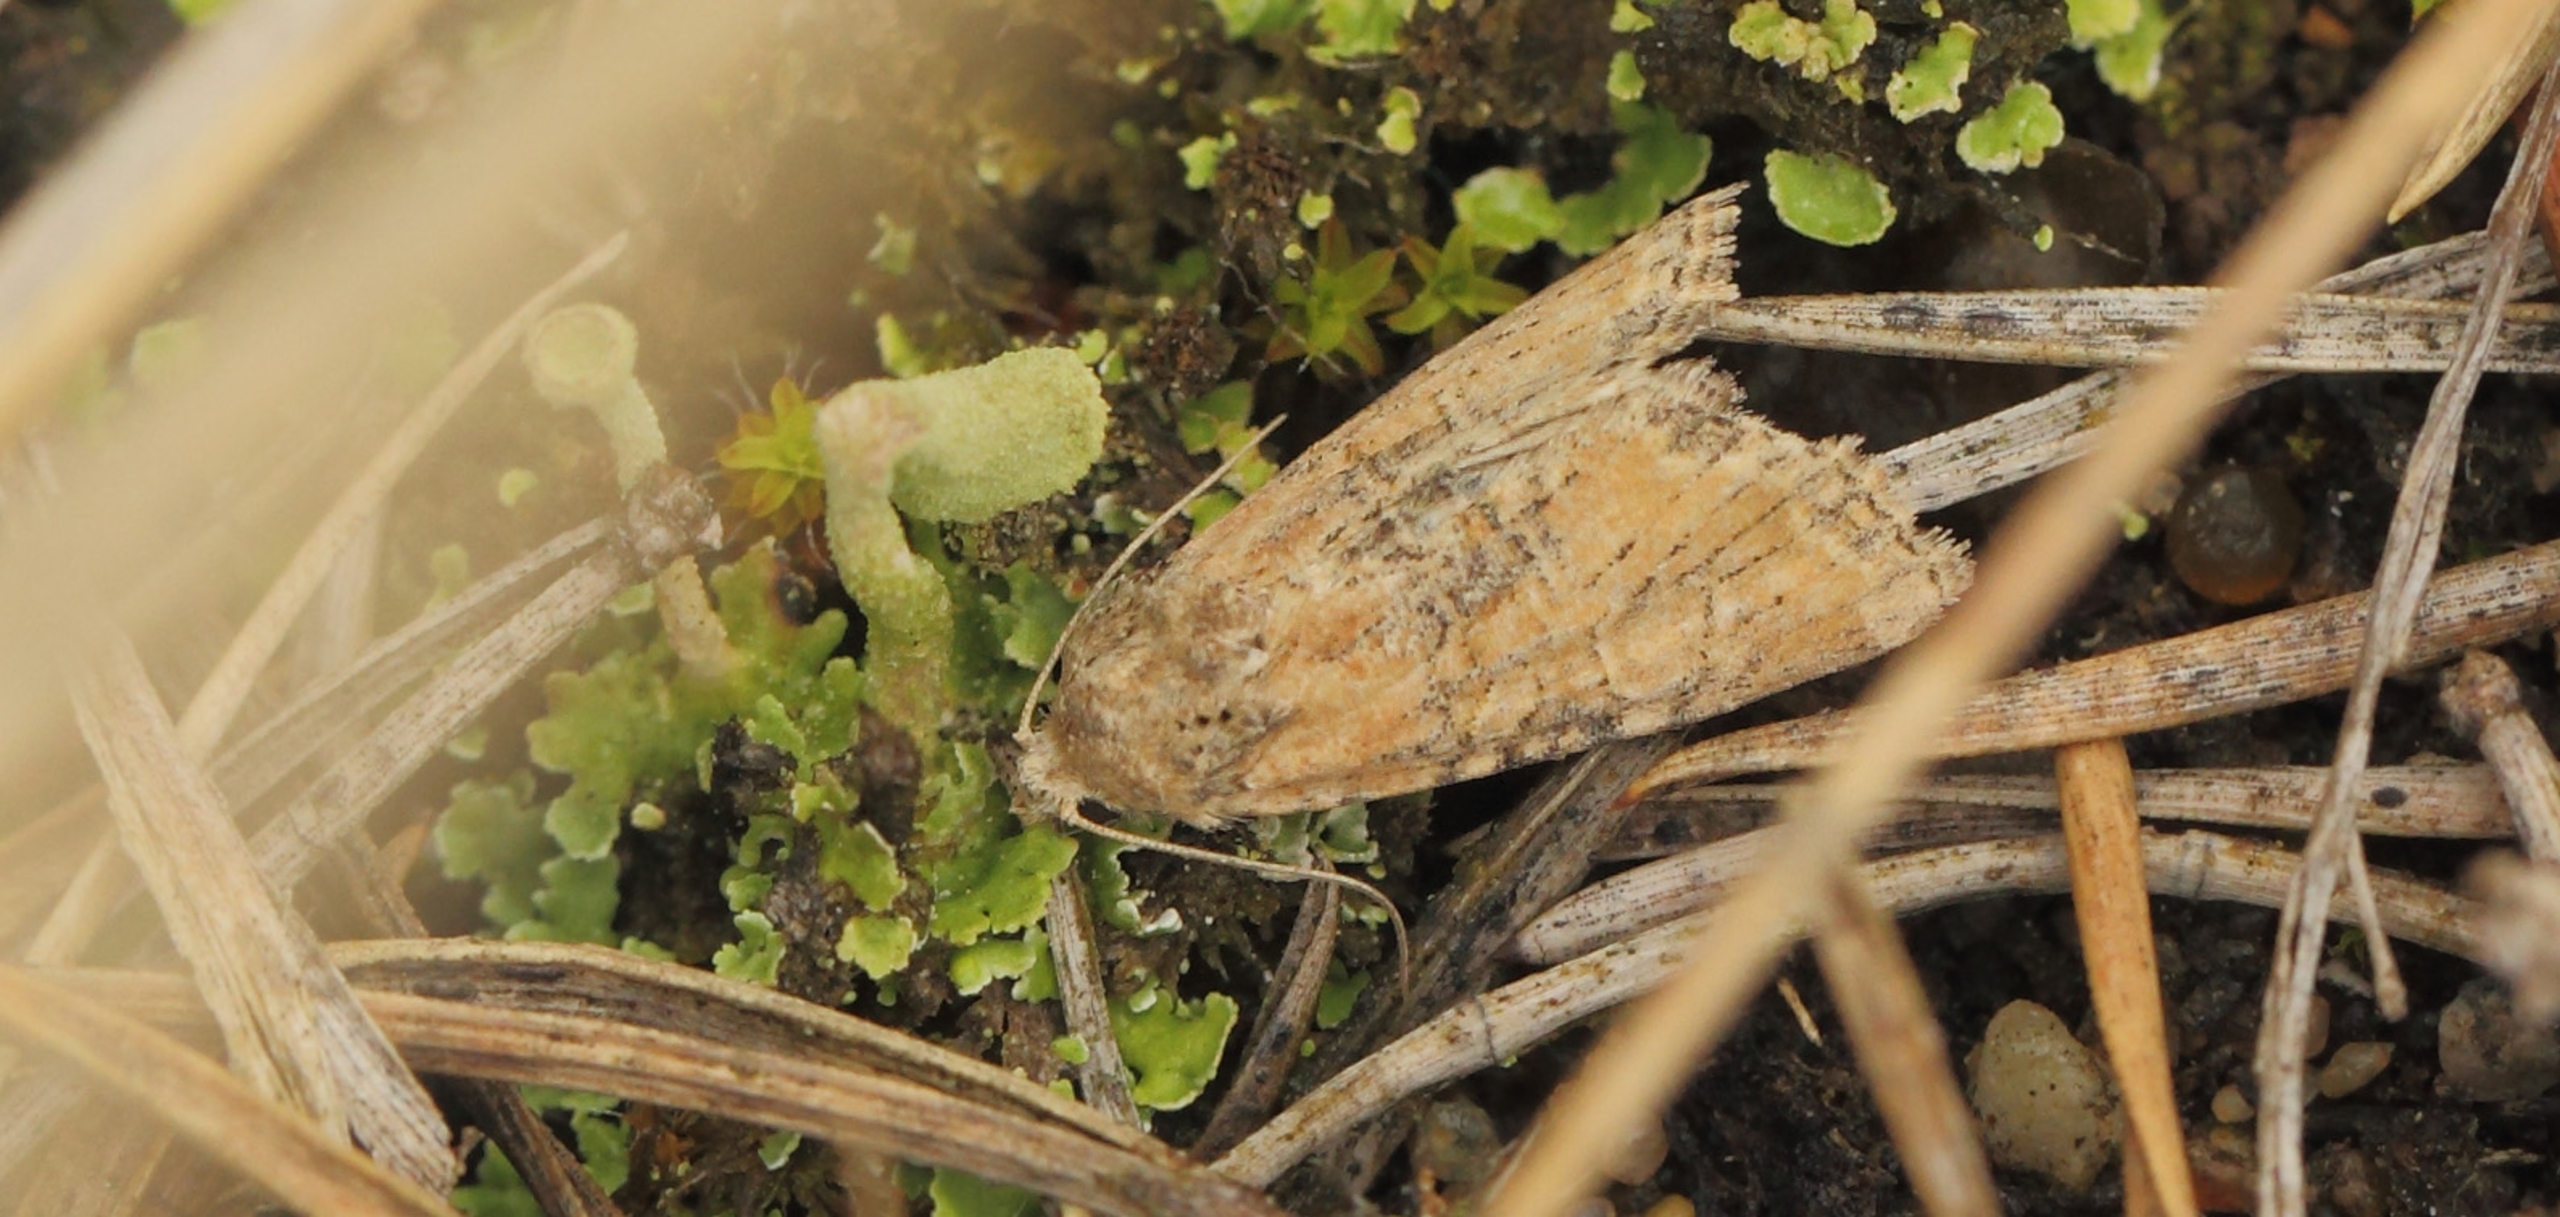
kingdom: Animalia
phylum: Arthropoda
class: Insecta
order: Lepidoptera
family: Noctuidae
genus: Oligia
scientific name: Oligia fasciuncula
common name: Båndet tyv
